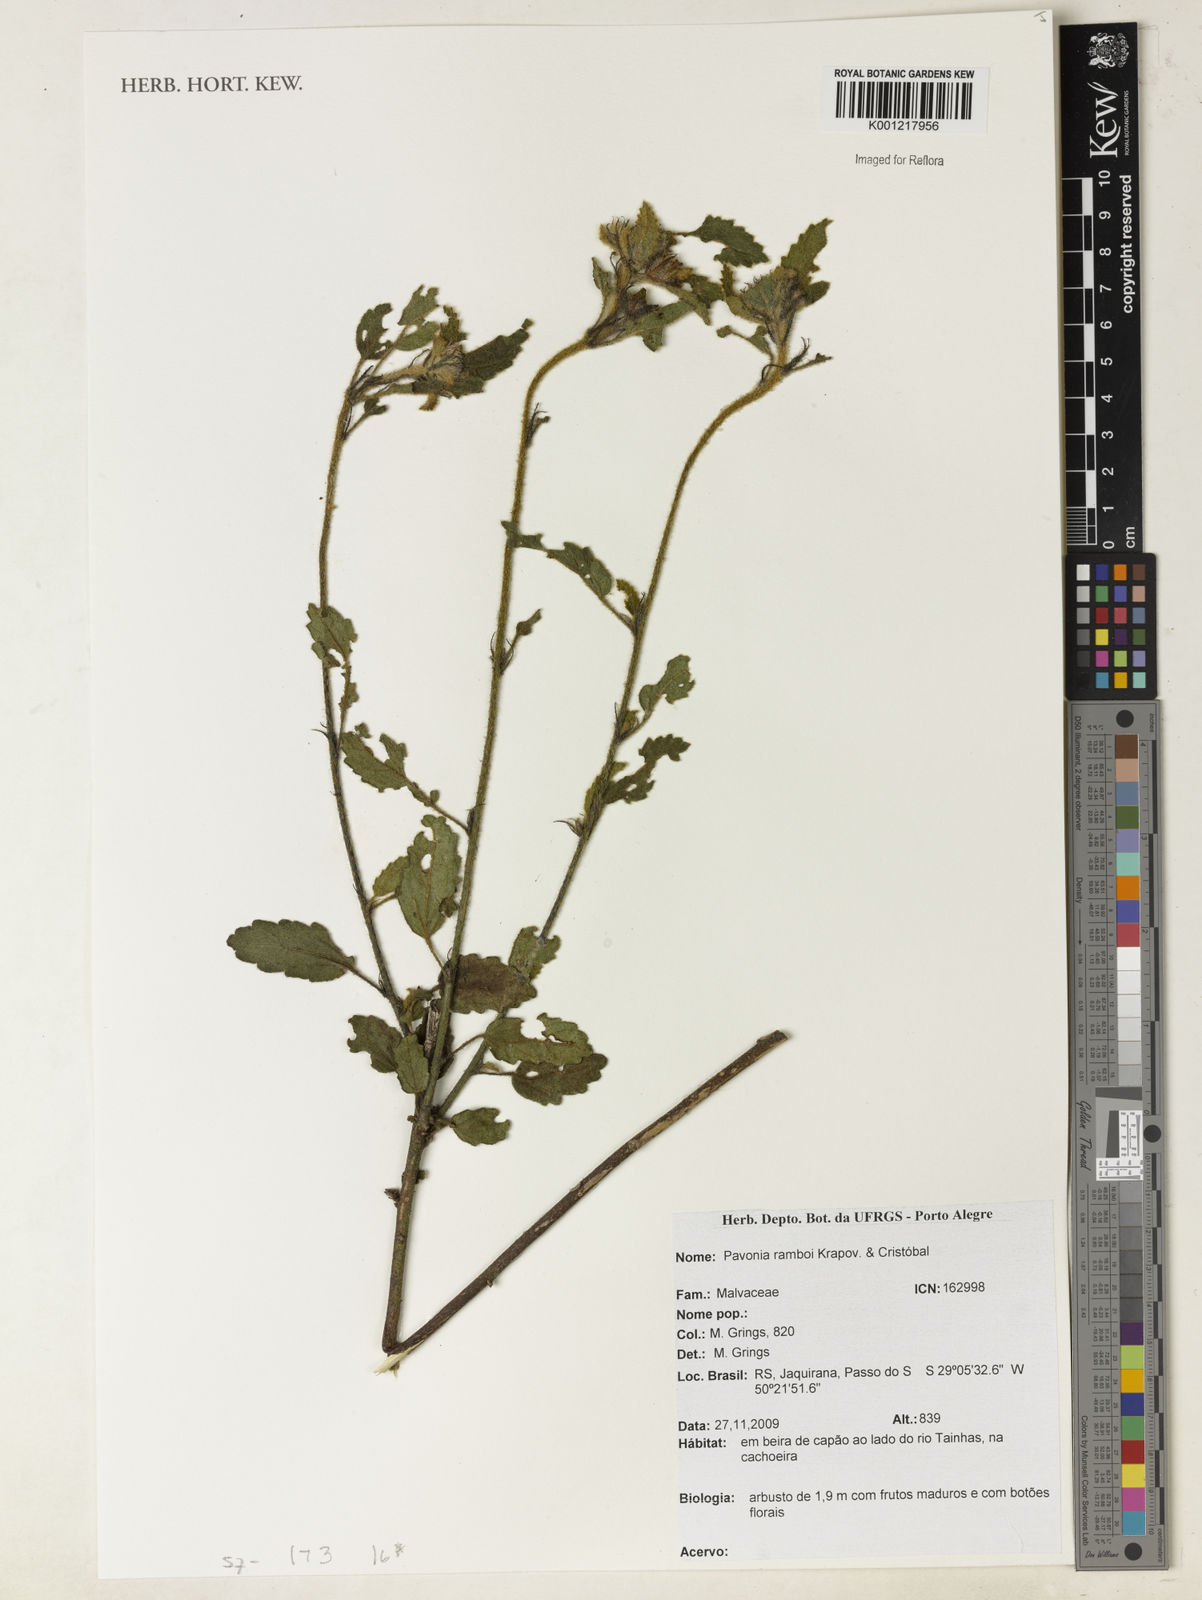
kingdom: Plantae
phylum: Tracheophyta
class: Magnoliopsida
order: Malvales
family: Malvaceae
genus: Pavonia
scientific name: Pavonia
